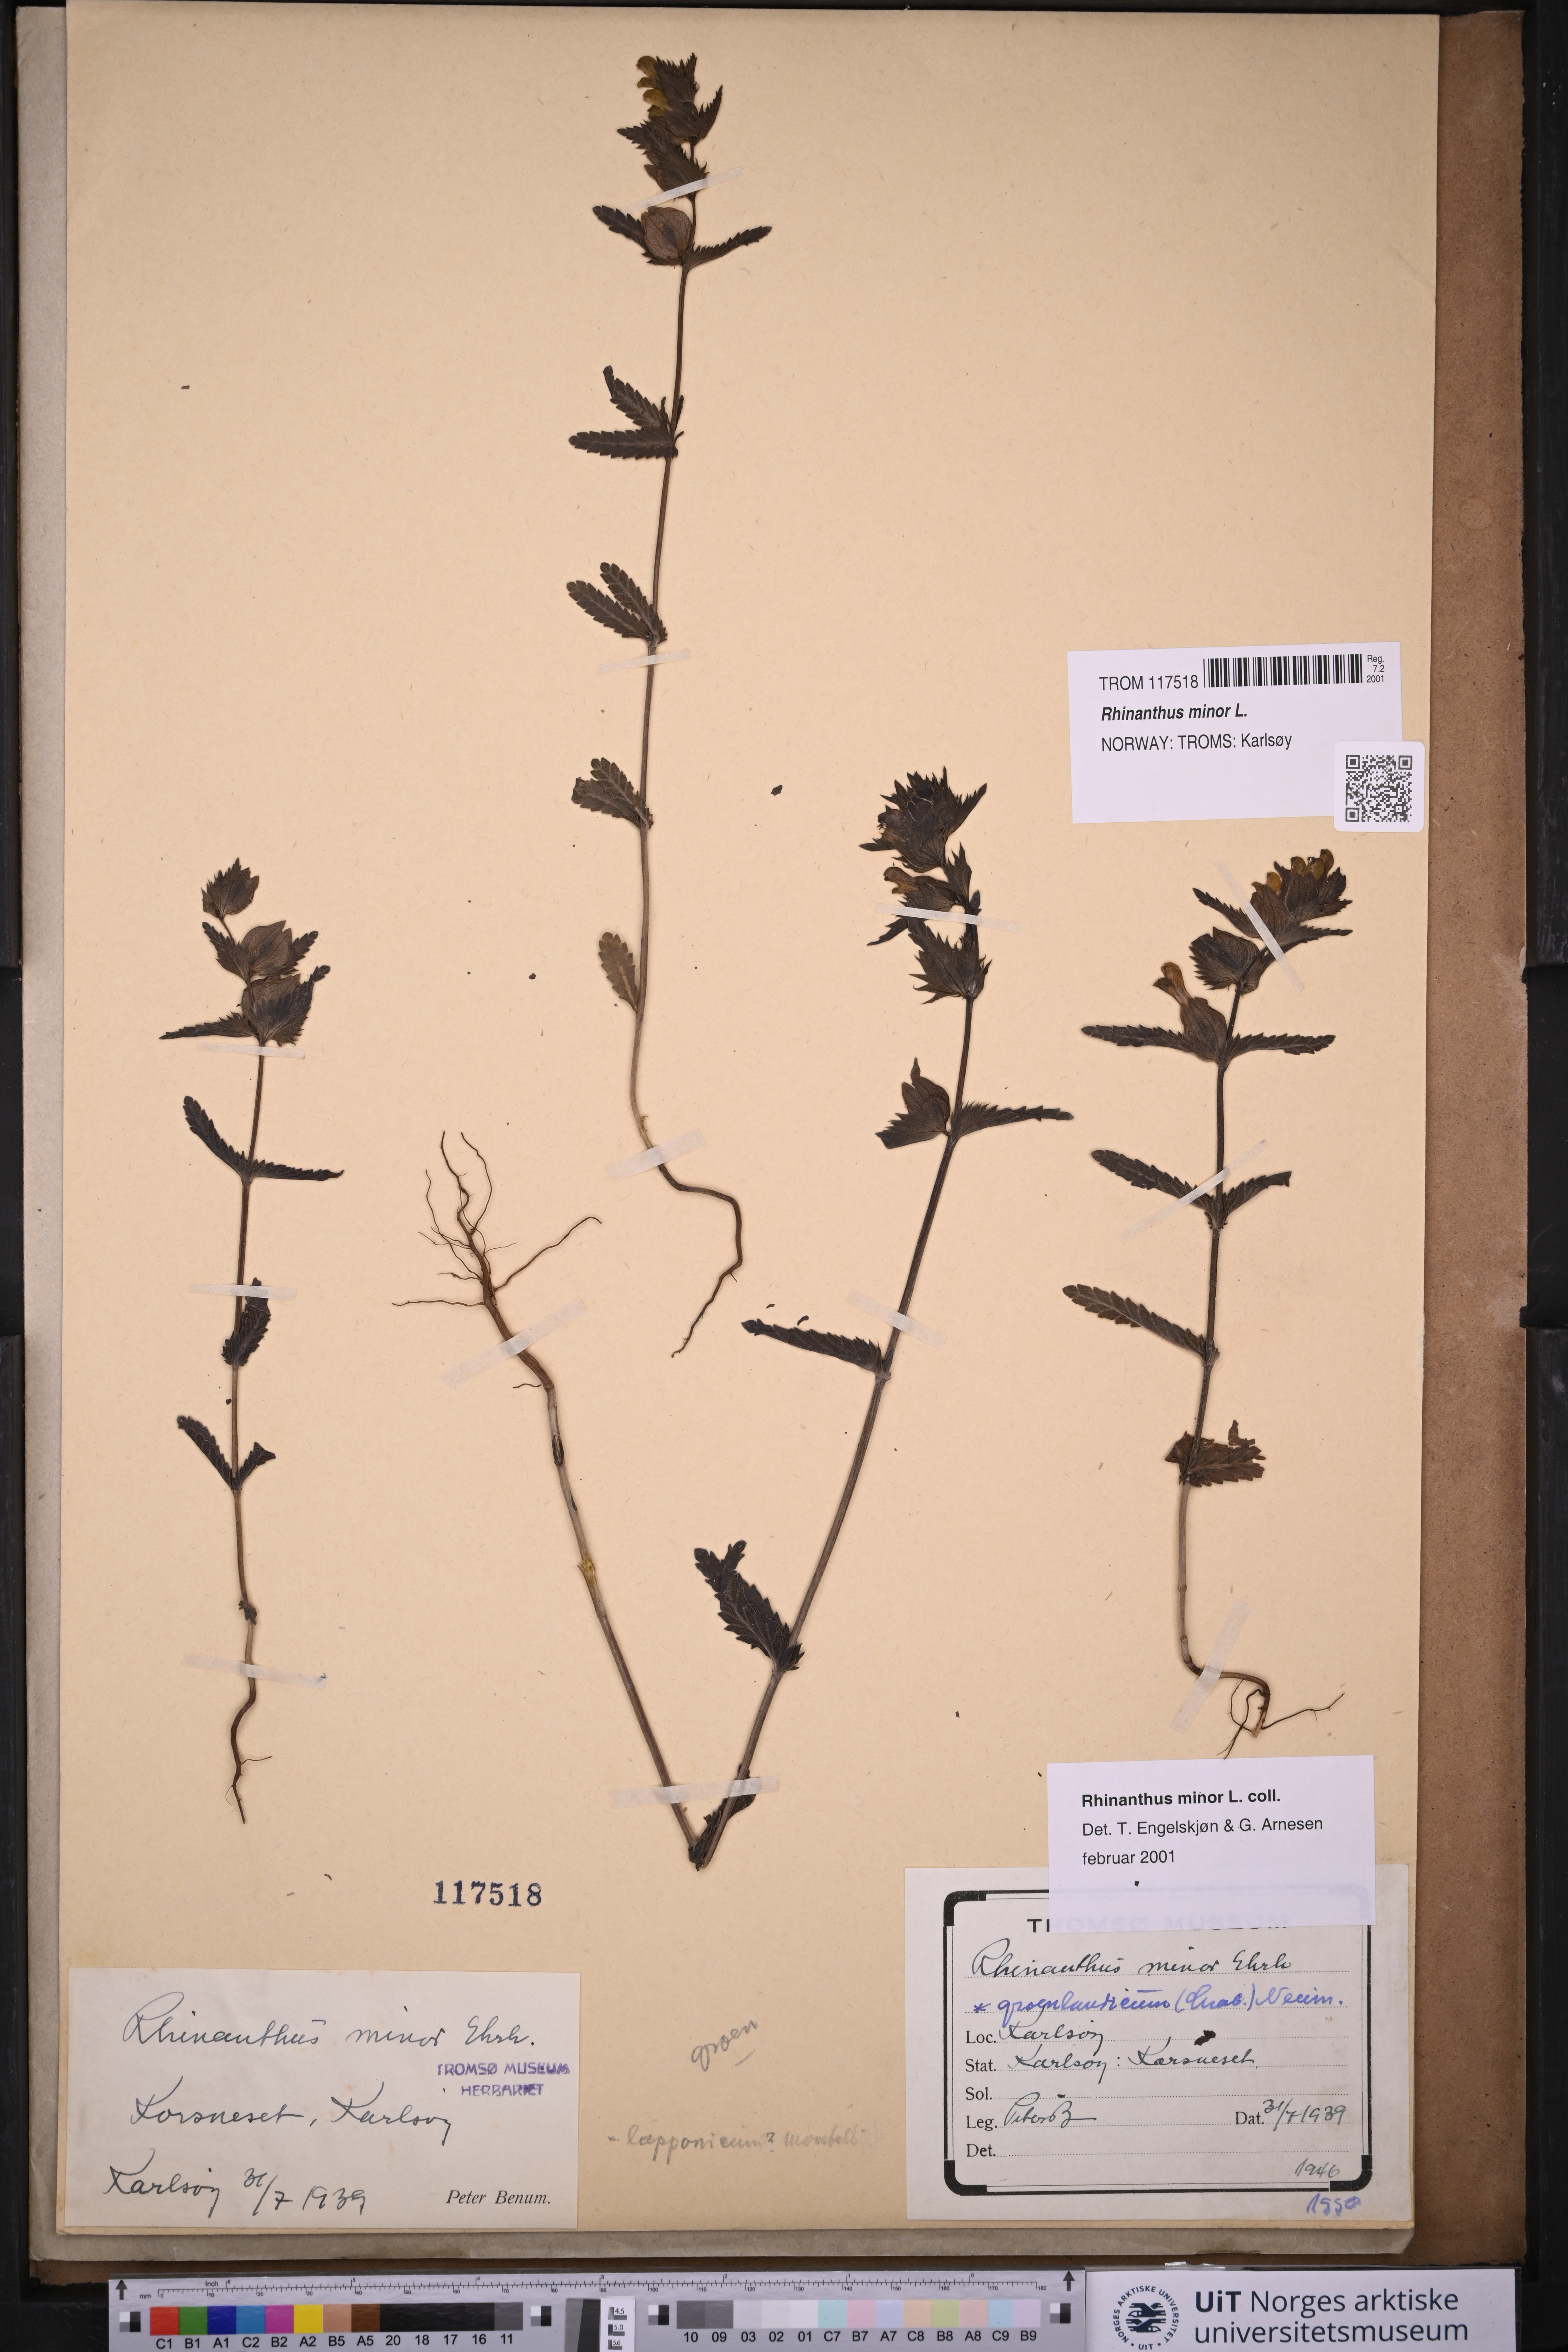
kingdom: Plantae
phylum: Tracheophyta
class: Magnoliopsida
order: Lamiales
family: Orobanchaceae
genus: Rhinanthus
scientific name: Rhinanthus minor
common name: Yellow-rattle
